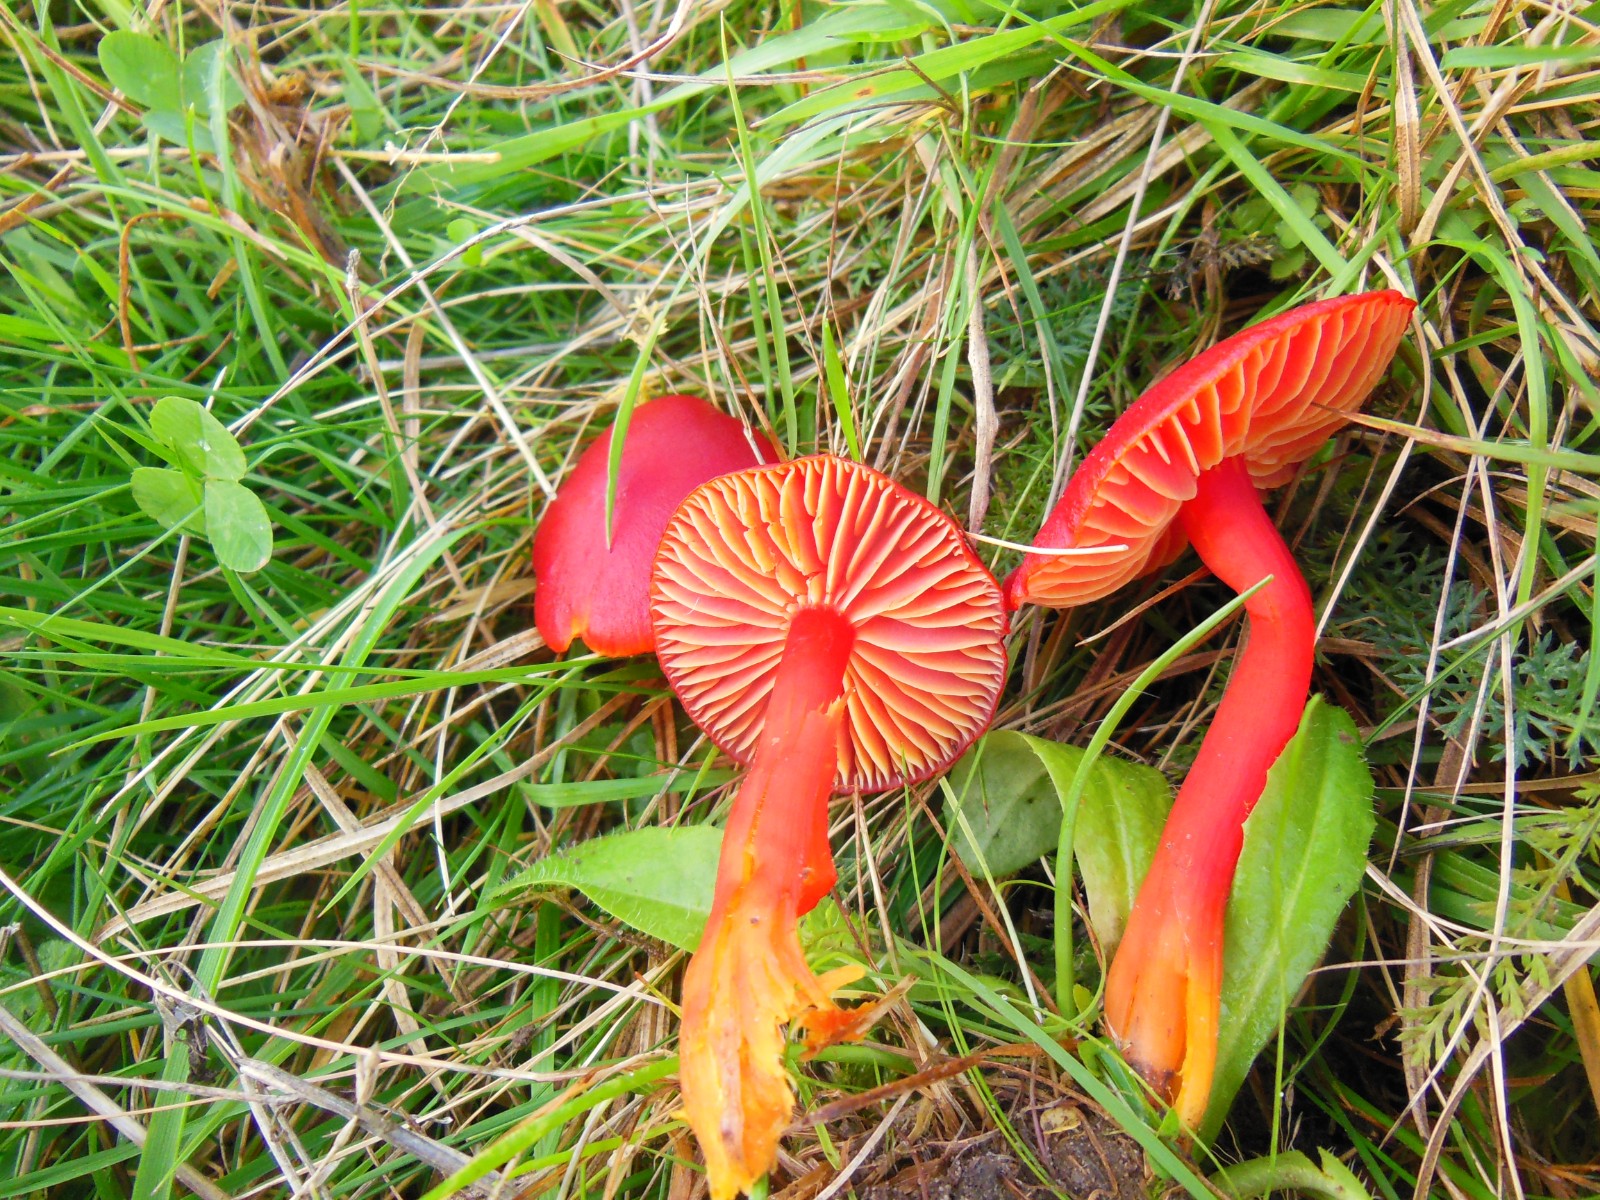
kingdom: Fungi
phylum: Basidiomycota
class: Agaricomycetes
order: Agaricales
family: Hygrophoraceae
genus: Hygrocybe
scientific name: Hygrocybe coccinea
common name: cinnober-vokshat
